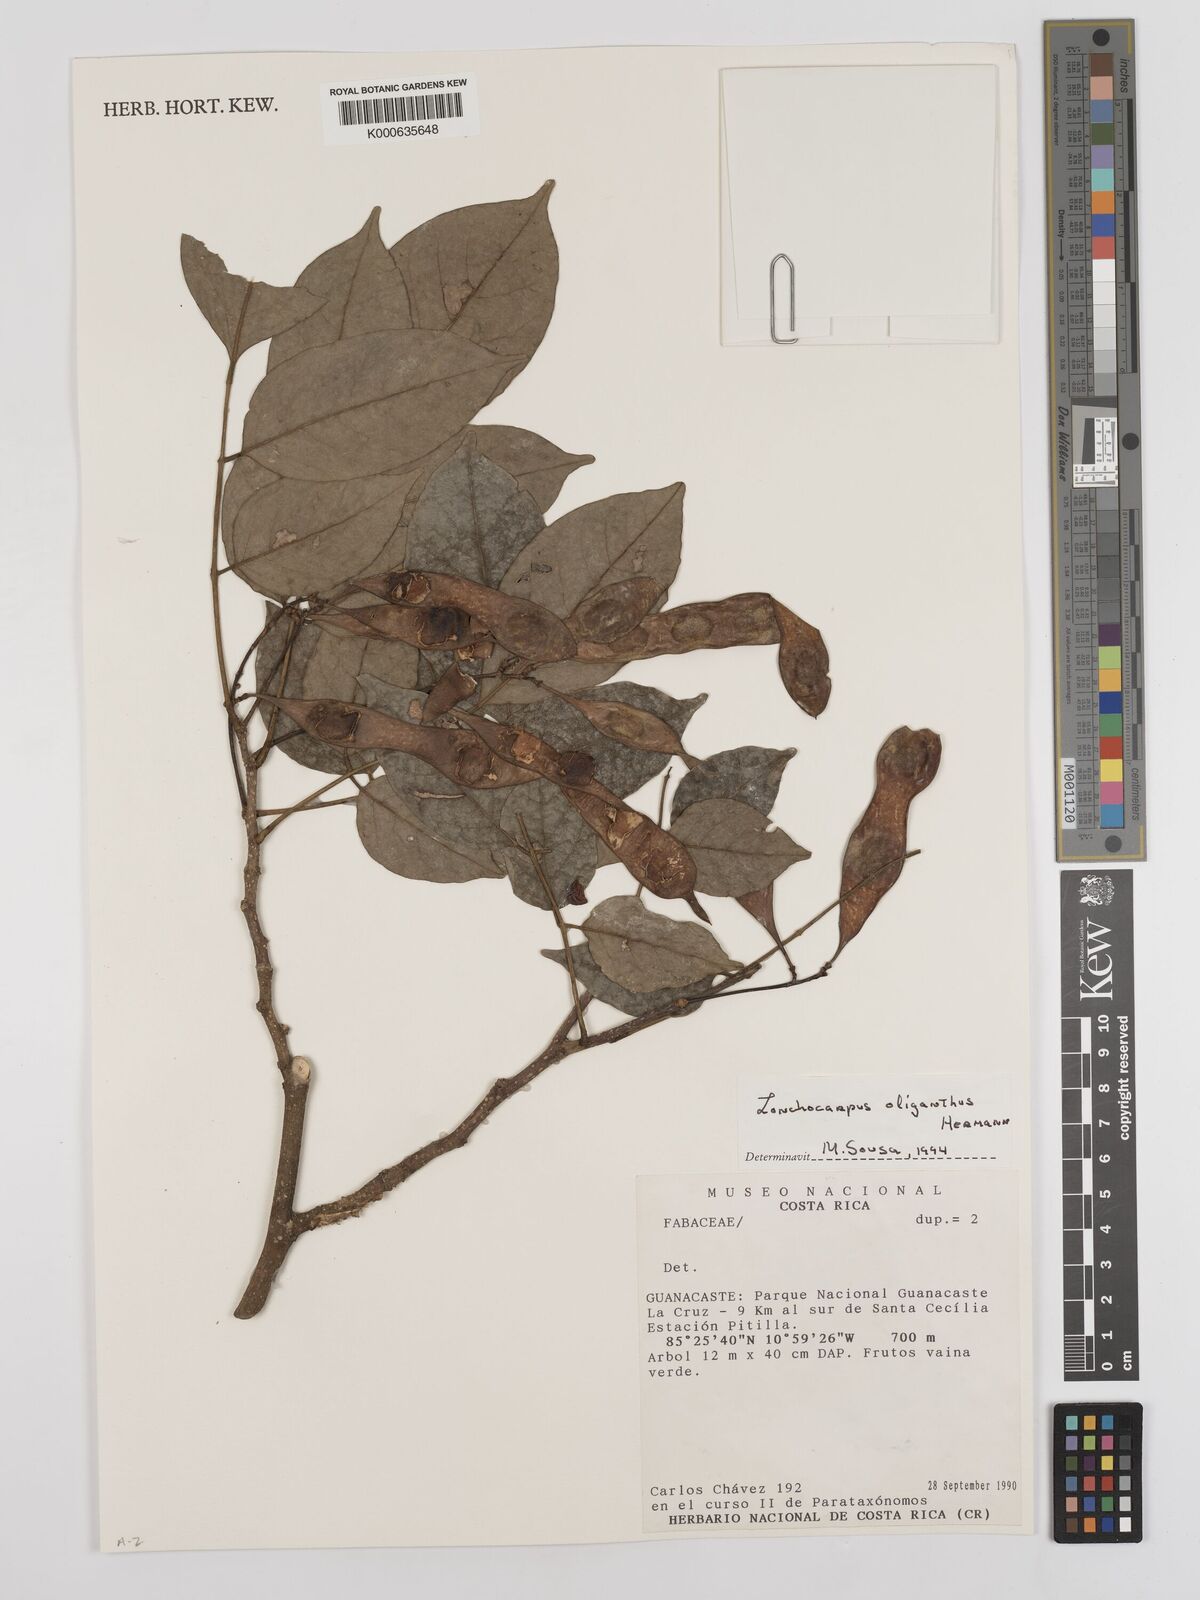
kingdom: Plantae
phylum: Tracheophyta
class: Magnoliopsida
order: Fabales
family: Fabaceae
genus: Lonchocarpus
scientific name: Lonchocarpus oliganthus
